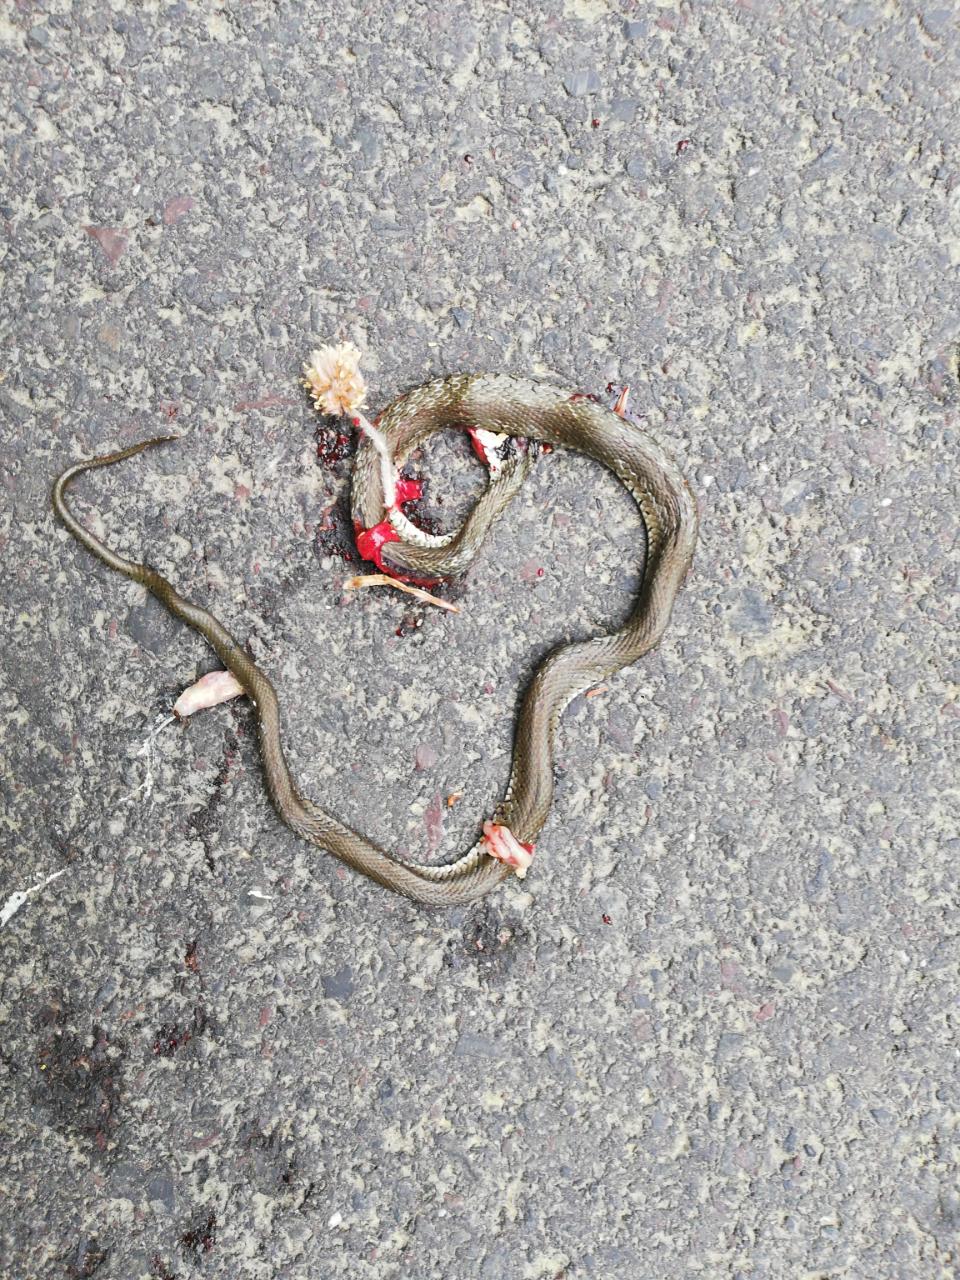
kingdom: Animalia
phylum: Chordata
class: Squamata
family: Colubridae
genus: Natrix
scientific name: Natrix natrix
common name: Grass snake
